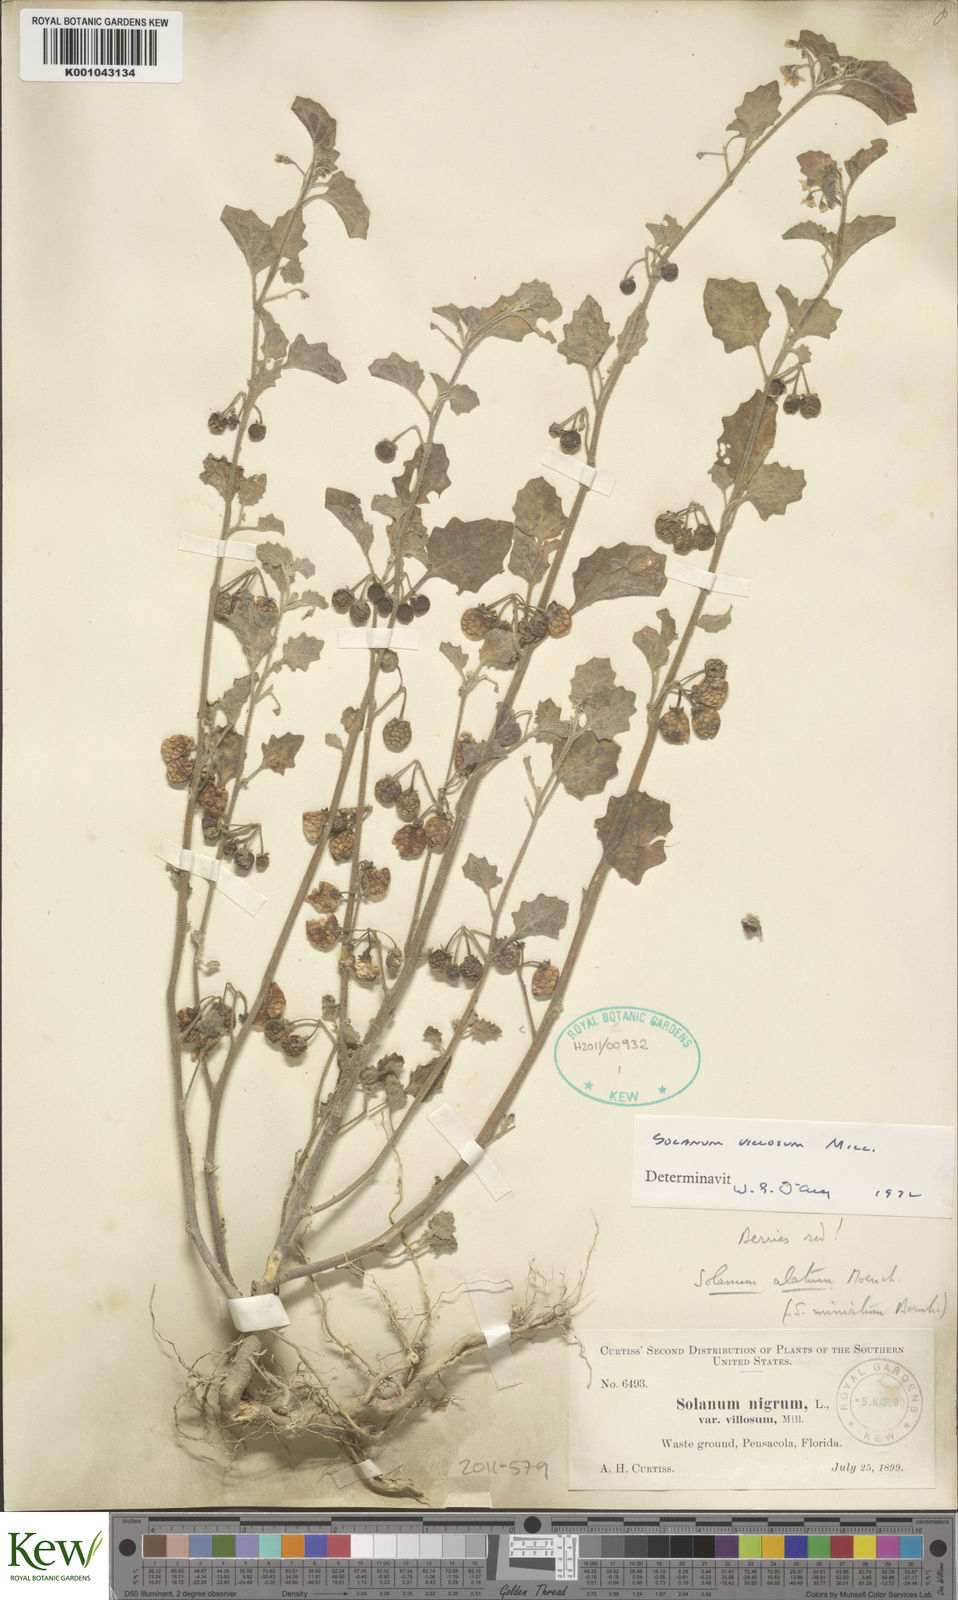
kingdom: Plantae
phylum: Tracheophyta
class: Magnoliopsida
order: Solanales
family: Solanaceae
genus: Solanum
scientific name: Solanum villosum
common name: Red nightshade
